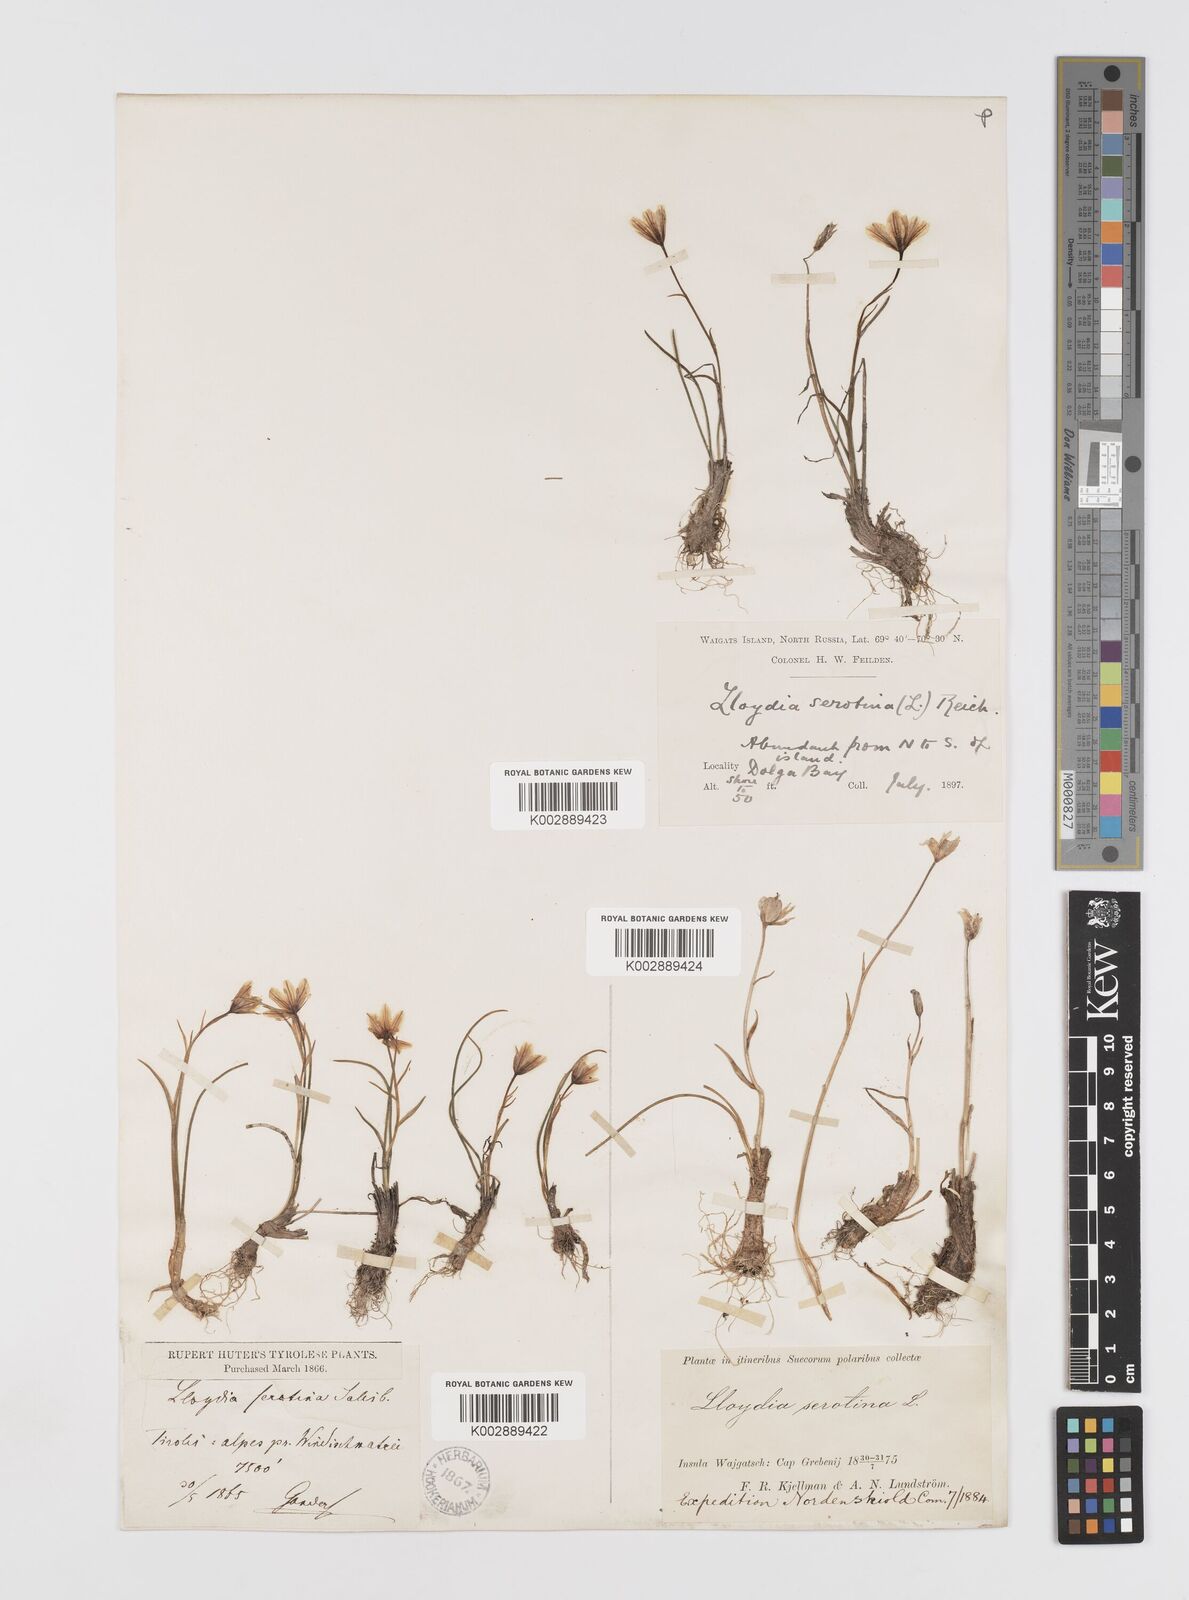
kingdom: Plantae
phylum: Tracheophyta
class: Liliopsida
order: Liliales
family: Liliaceae
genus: Gagea
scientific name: Gagea
